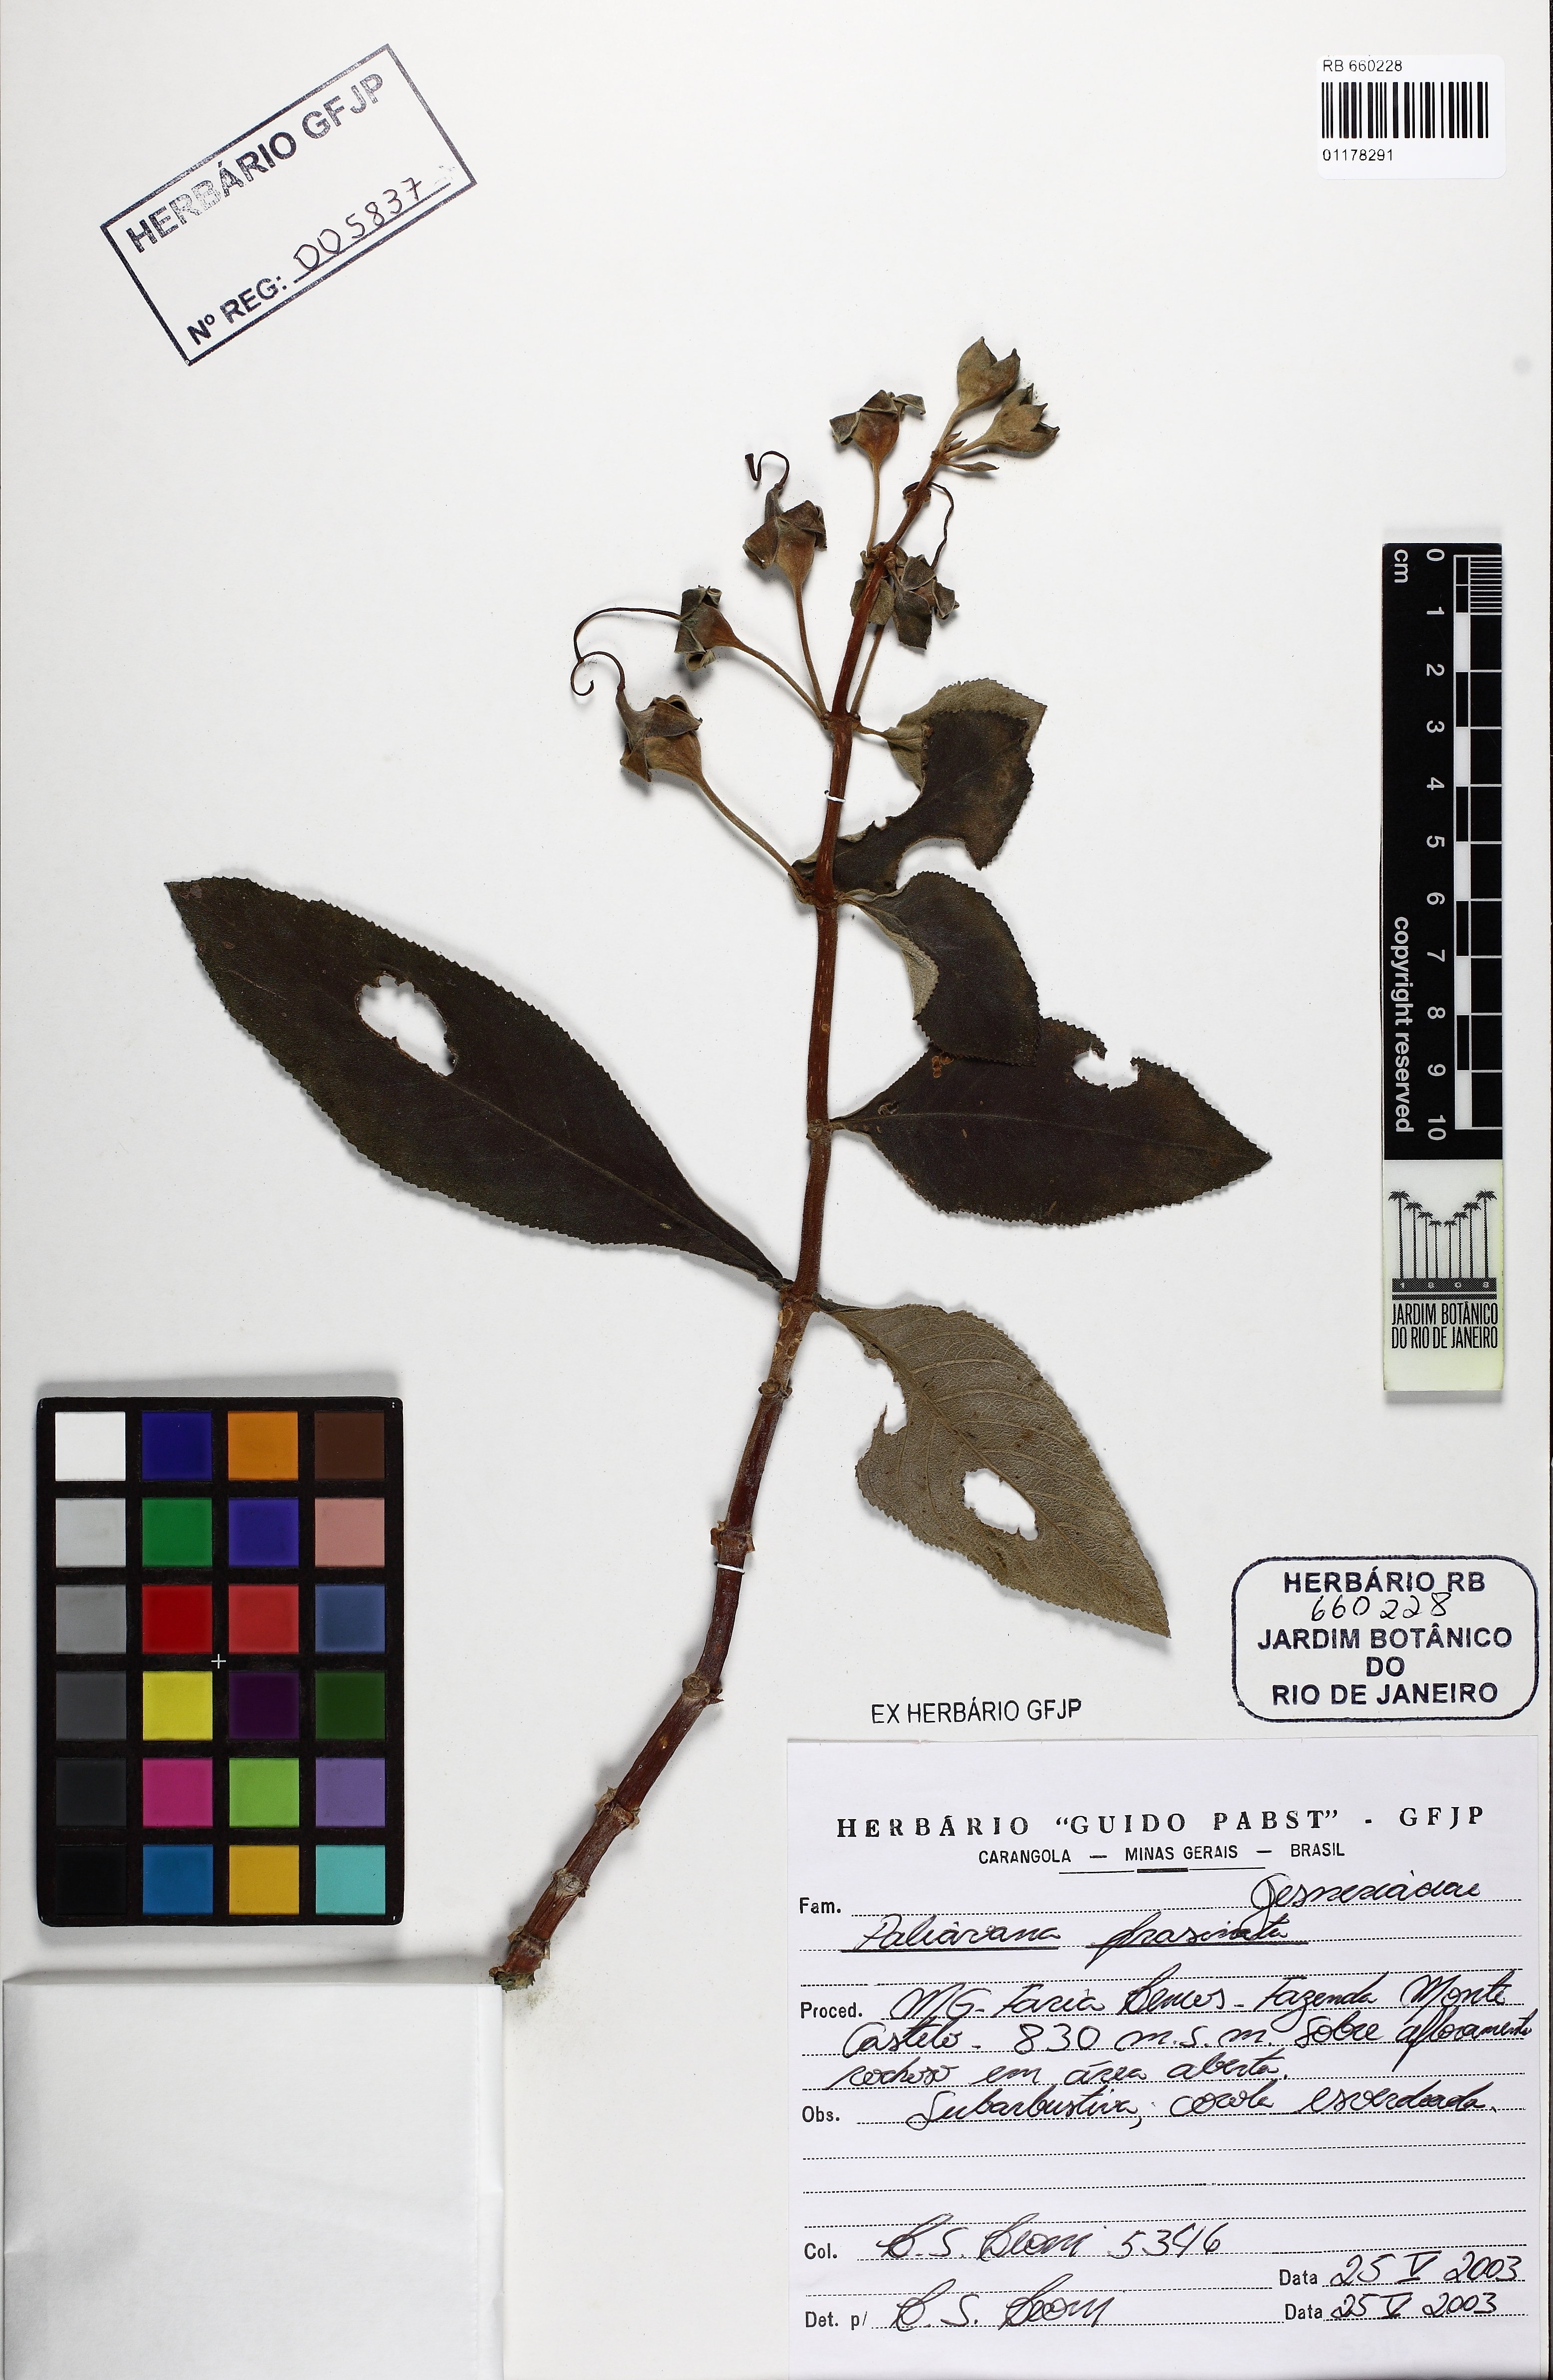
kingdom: Plantae
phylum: Tracheophyta
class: Magnoliopsida
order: Lamiales
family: Gesneriaceae
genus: Paliavana
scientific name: Paliavana prasinata
